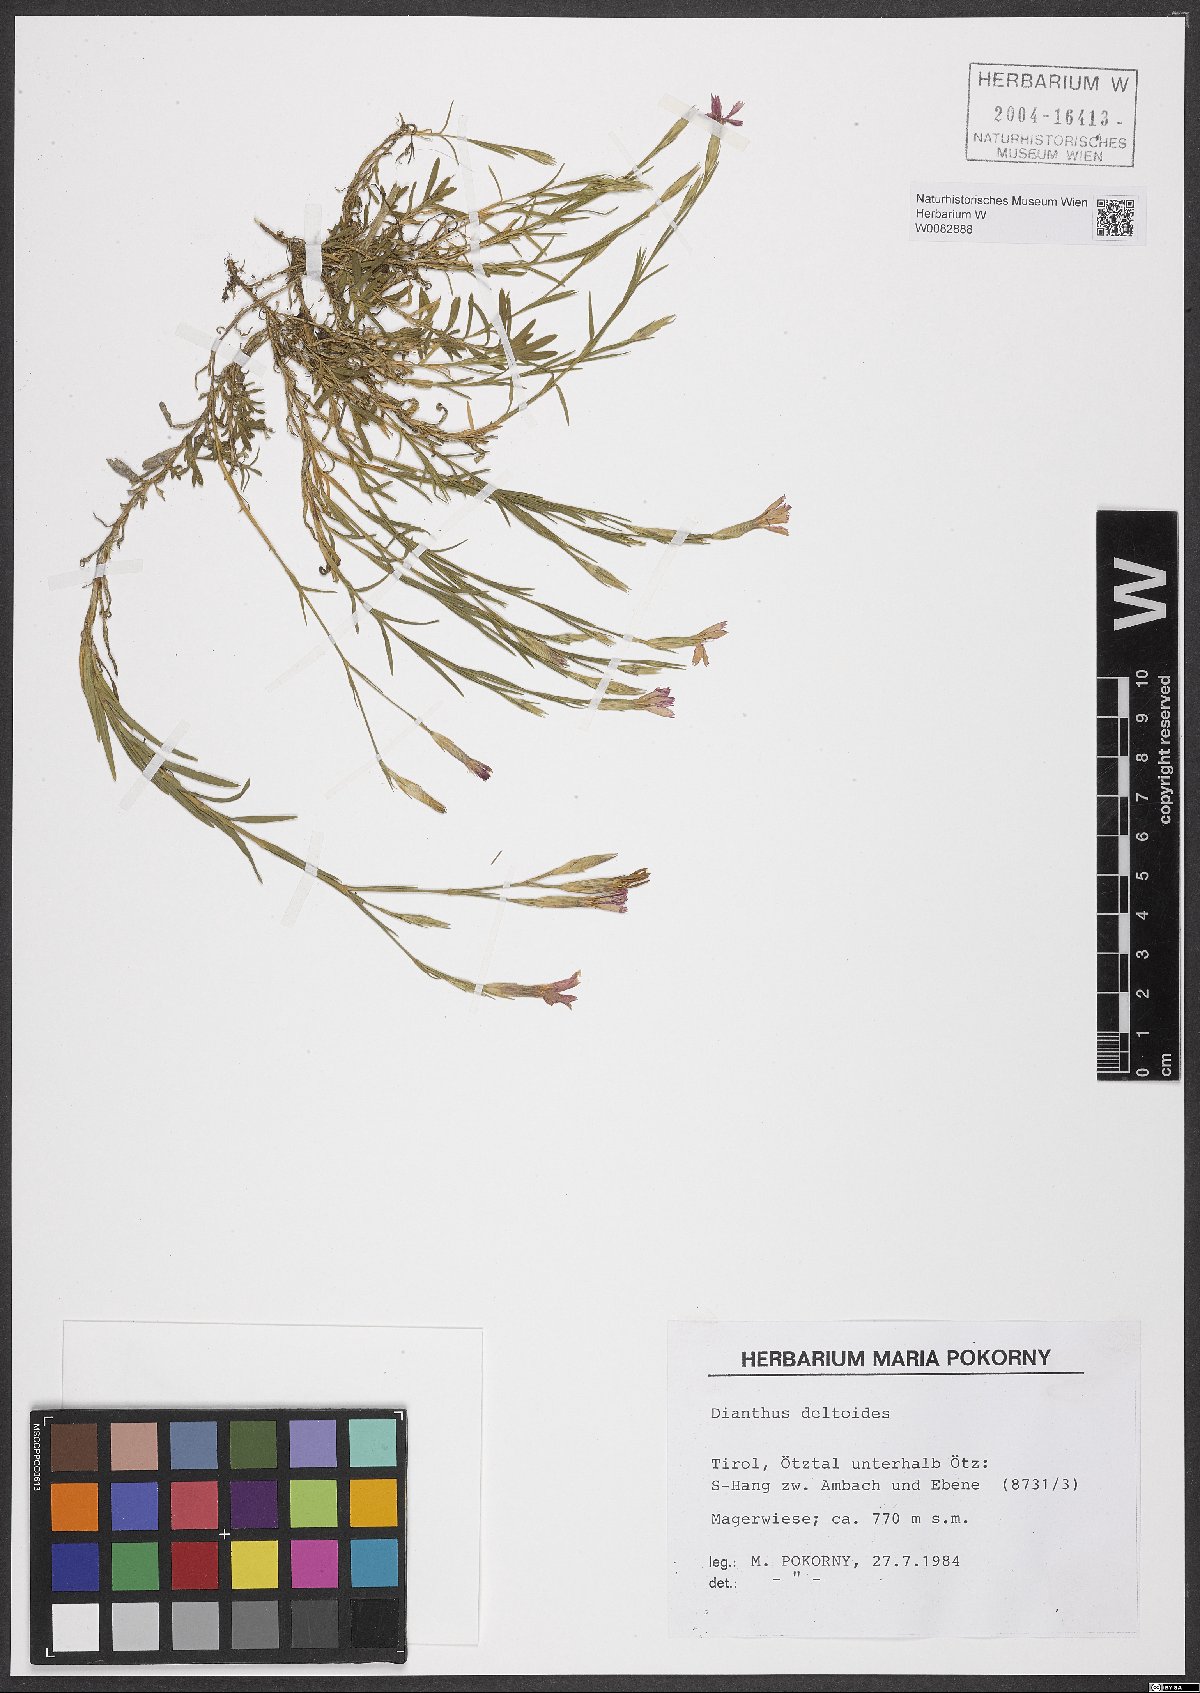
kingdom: Plantae
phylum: Tracheophyta
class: Magnoliopsida
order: Caryophyllales
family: Caryophyllaceae
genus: Dianthus
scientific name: Dianthus deltoides
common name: Maiden pink
